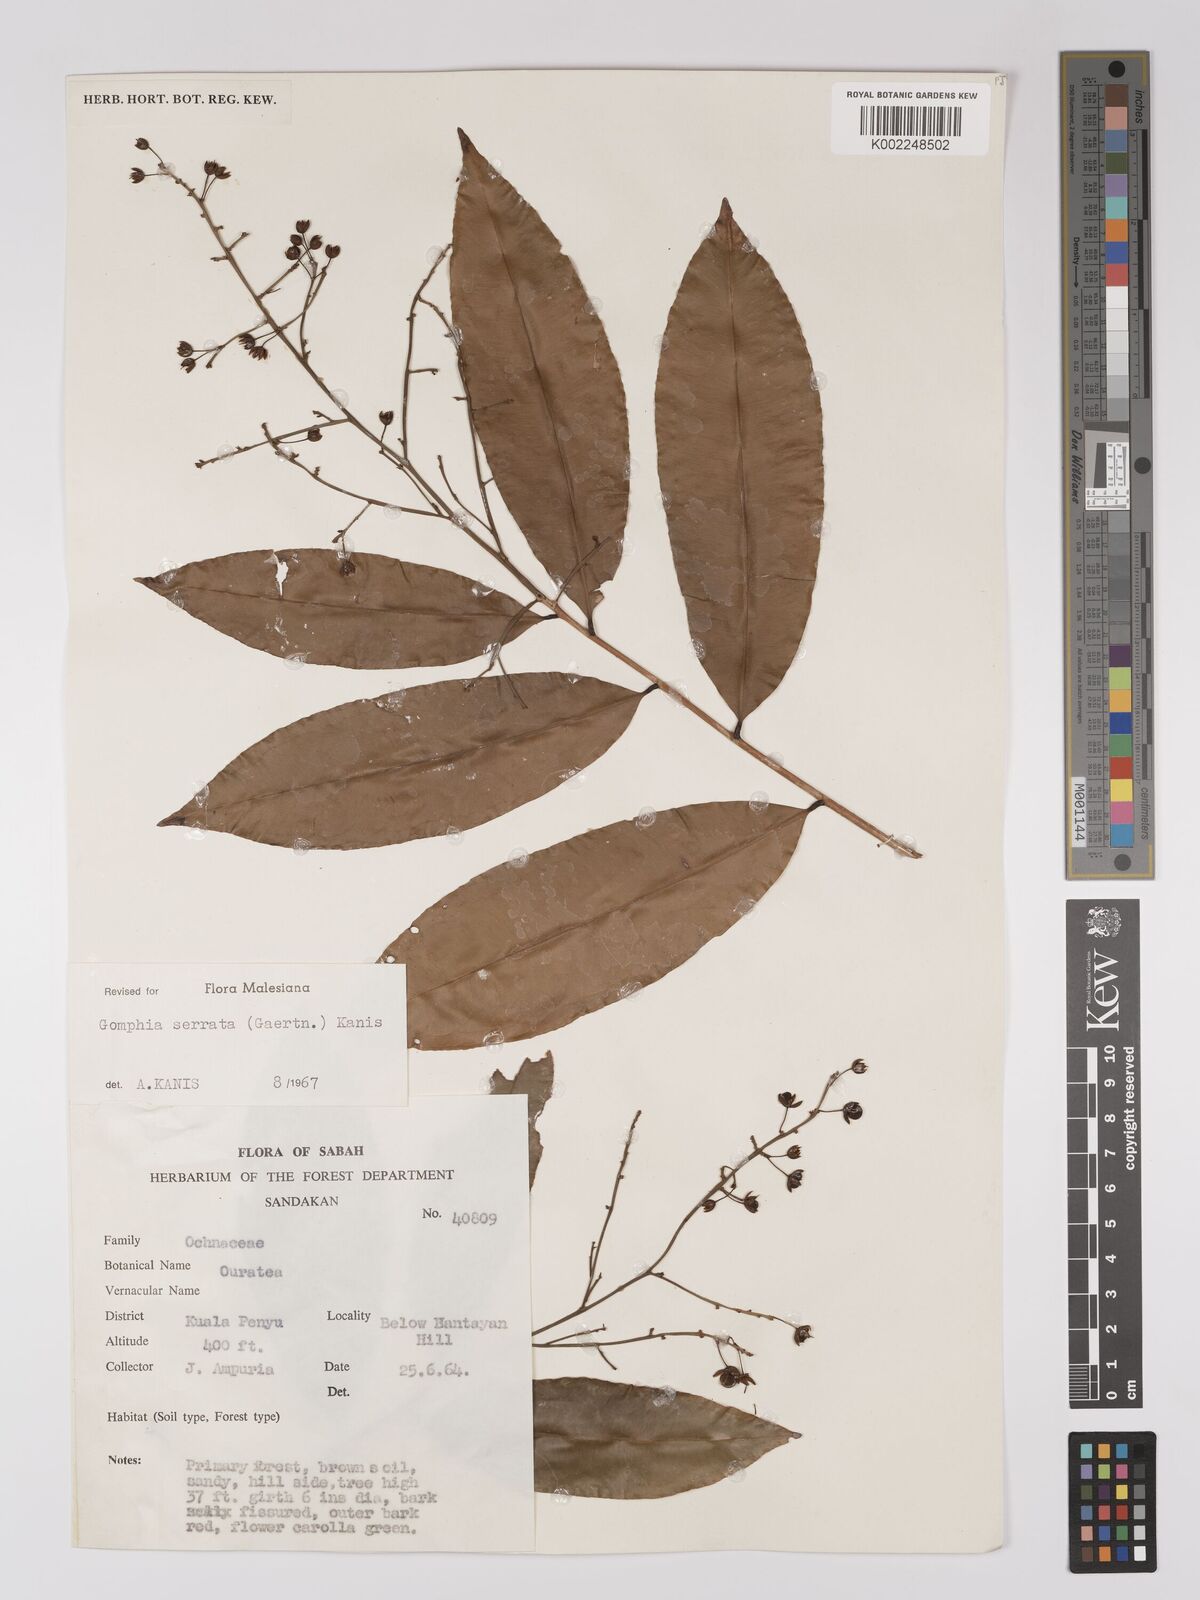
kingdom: Plantae
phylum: Tracheophyta
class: Magnoliopsida
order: Malpighiales
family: Ochnaceae
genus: Gomphia
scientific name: Gomphia serrata
